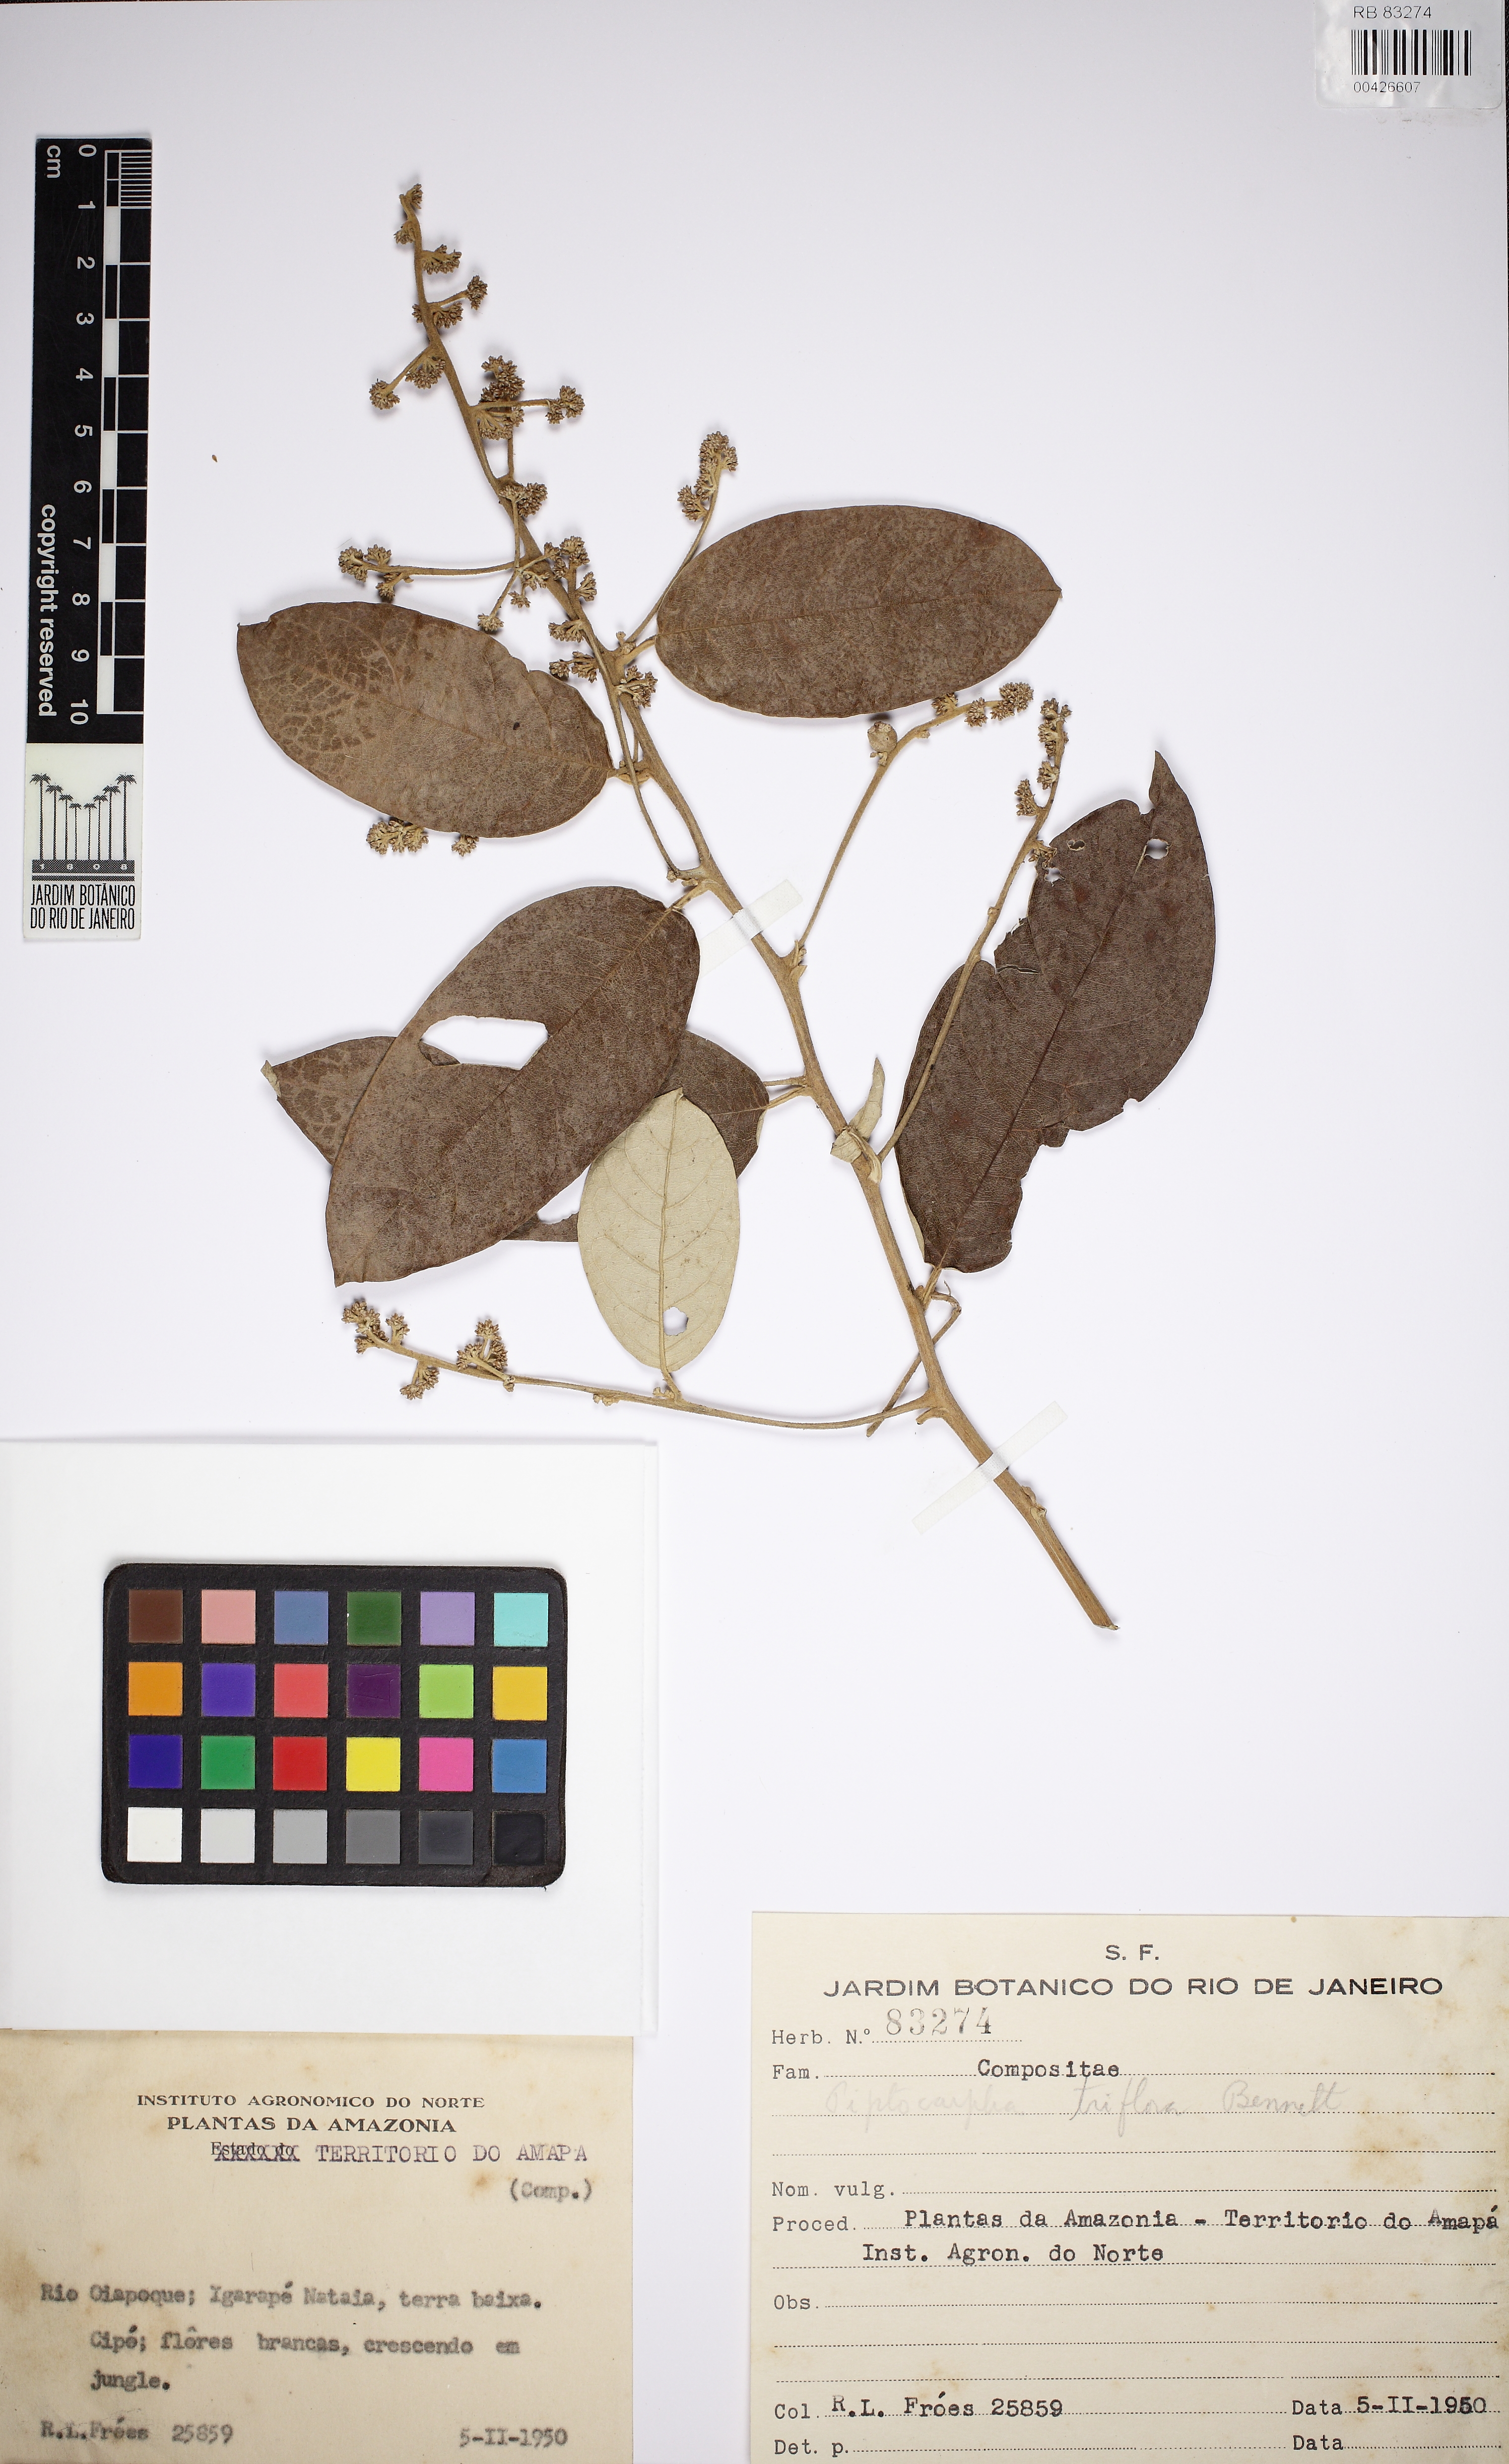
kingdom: Plantae
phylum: Tracheophyta
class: Magnoliopsida
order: Asterales
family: Asteraceae
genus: Piptocarpha
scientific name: Piptocarpha triflora
